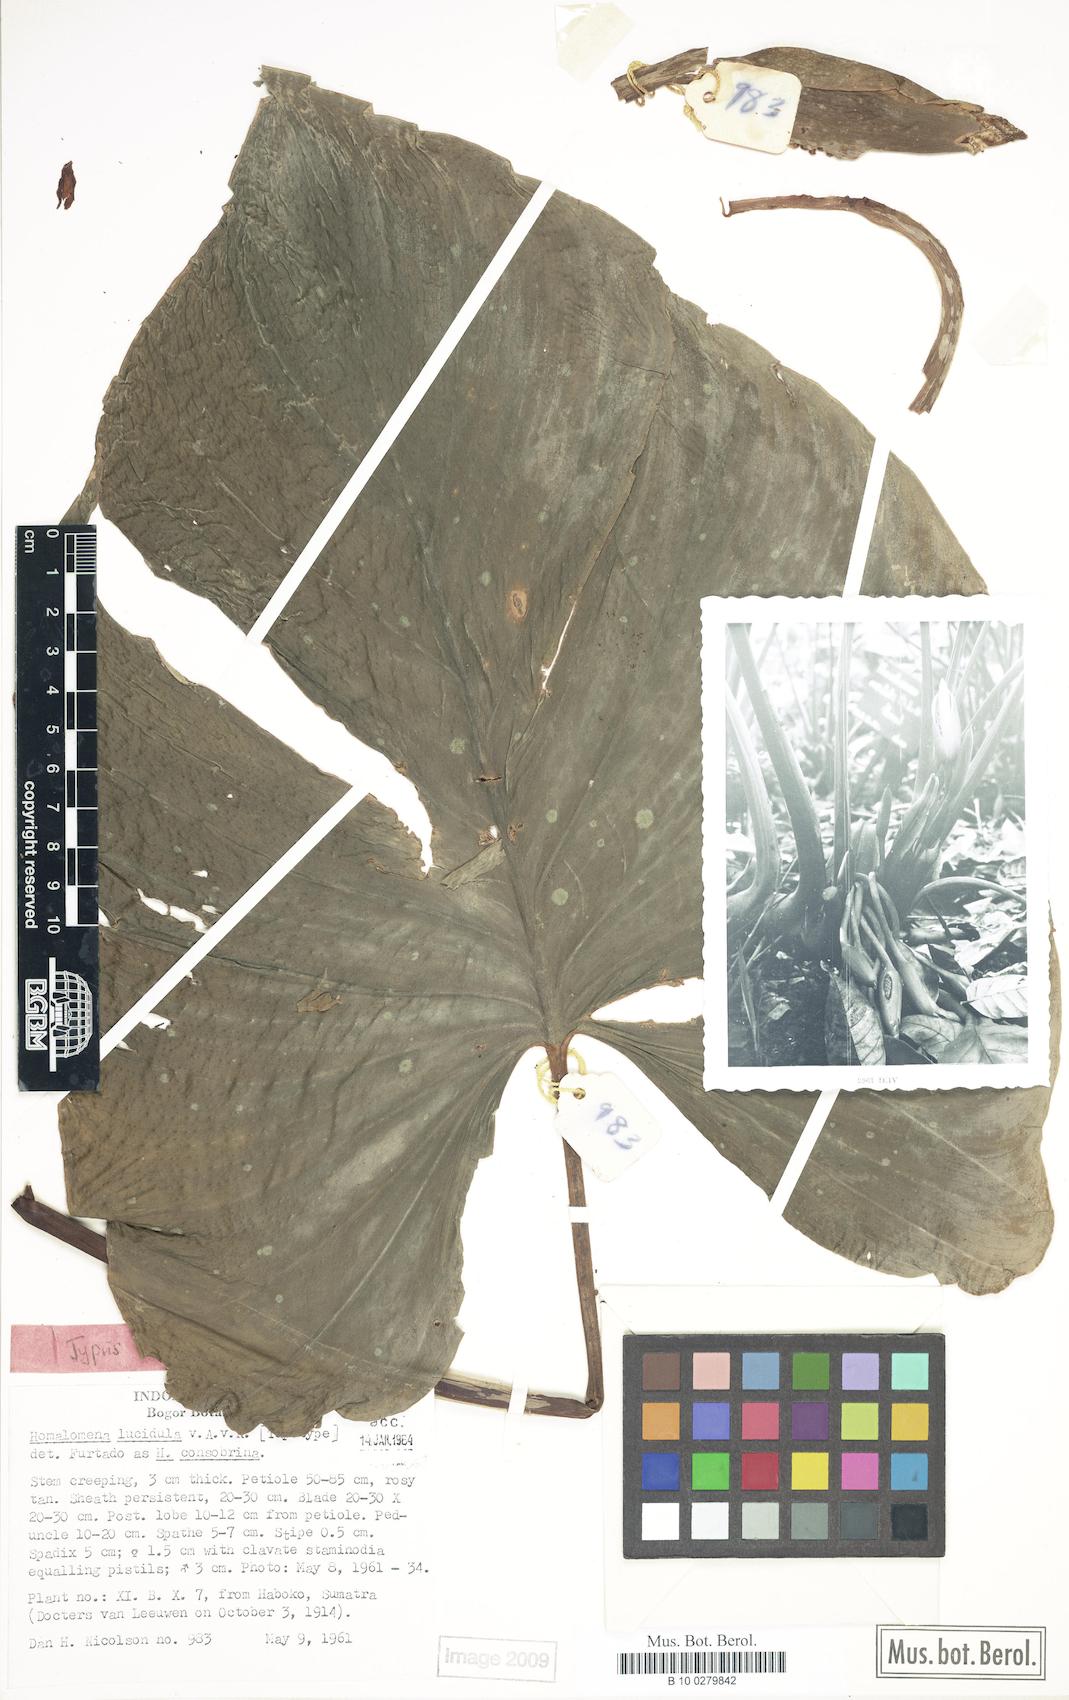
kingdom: Plantae
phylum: Tracheophyta
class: Liliopsida
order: Alismatales
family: Araceae
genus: Homalomena
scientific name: Homalomena consobrina
